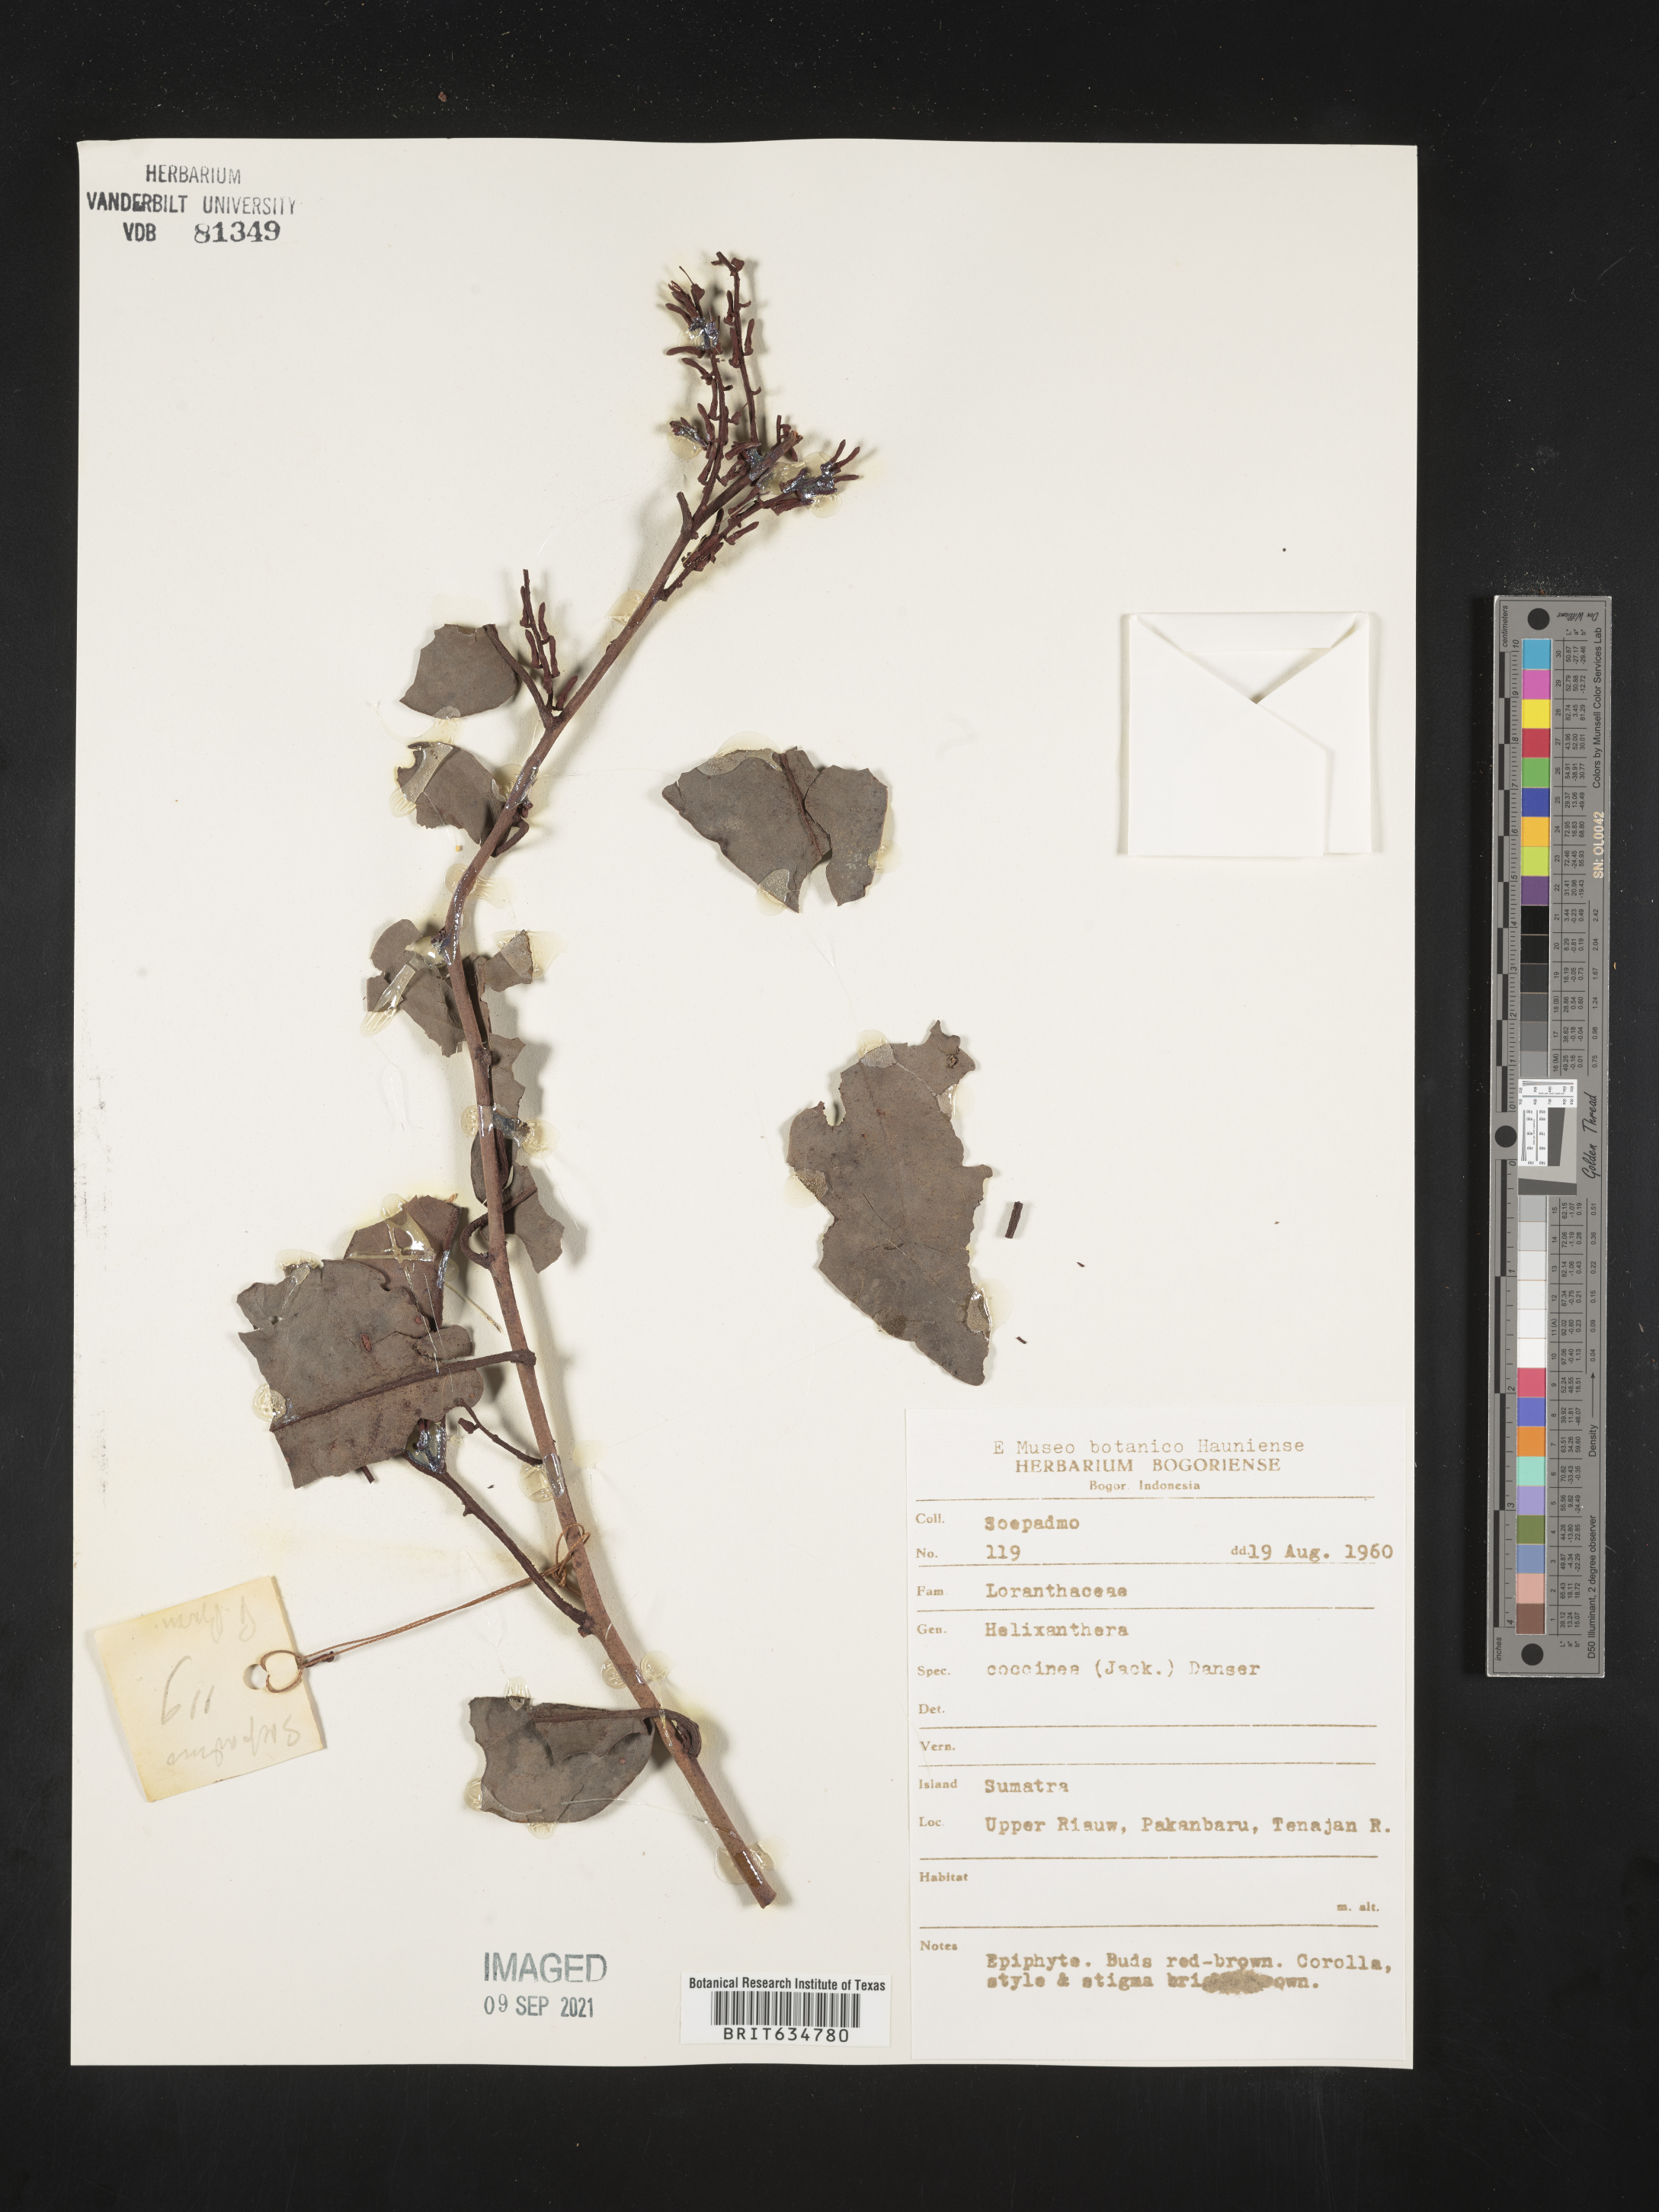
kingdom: Plantae
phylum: Tracheophyta
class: Magnoliopsida
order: Santalales
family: Loranthaceae
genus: Helixanthera
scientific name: Helixanthera
